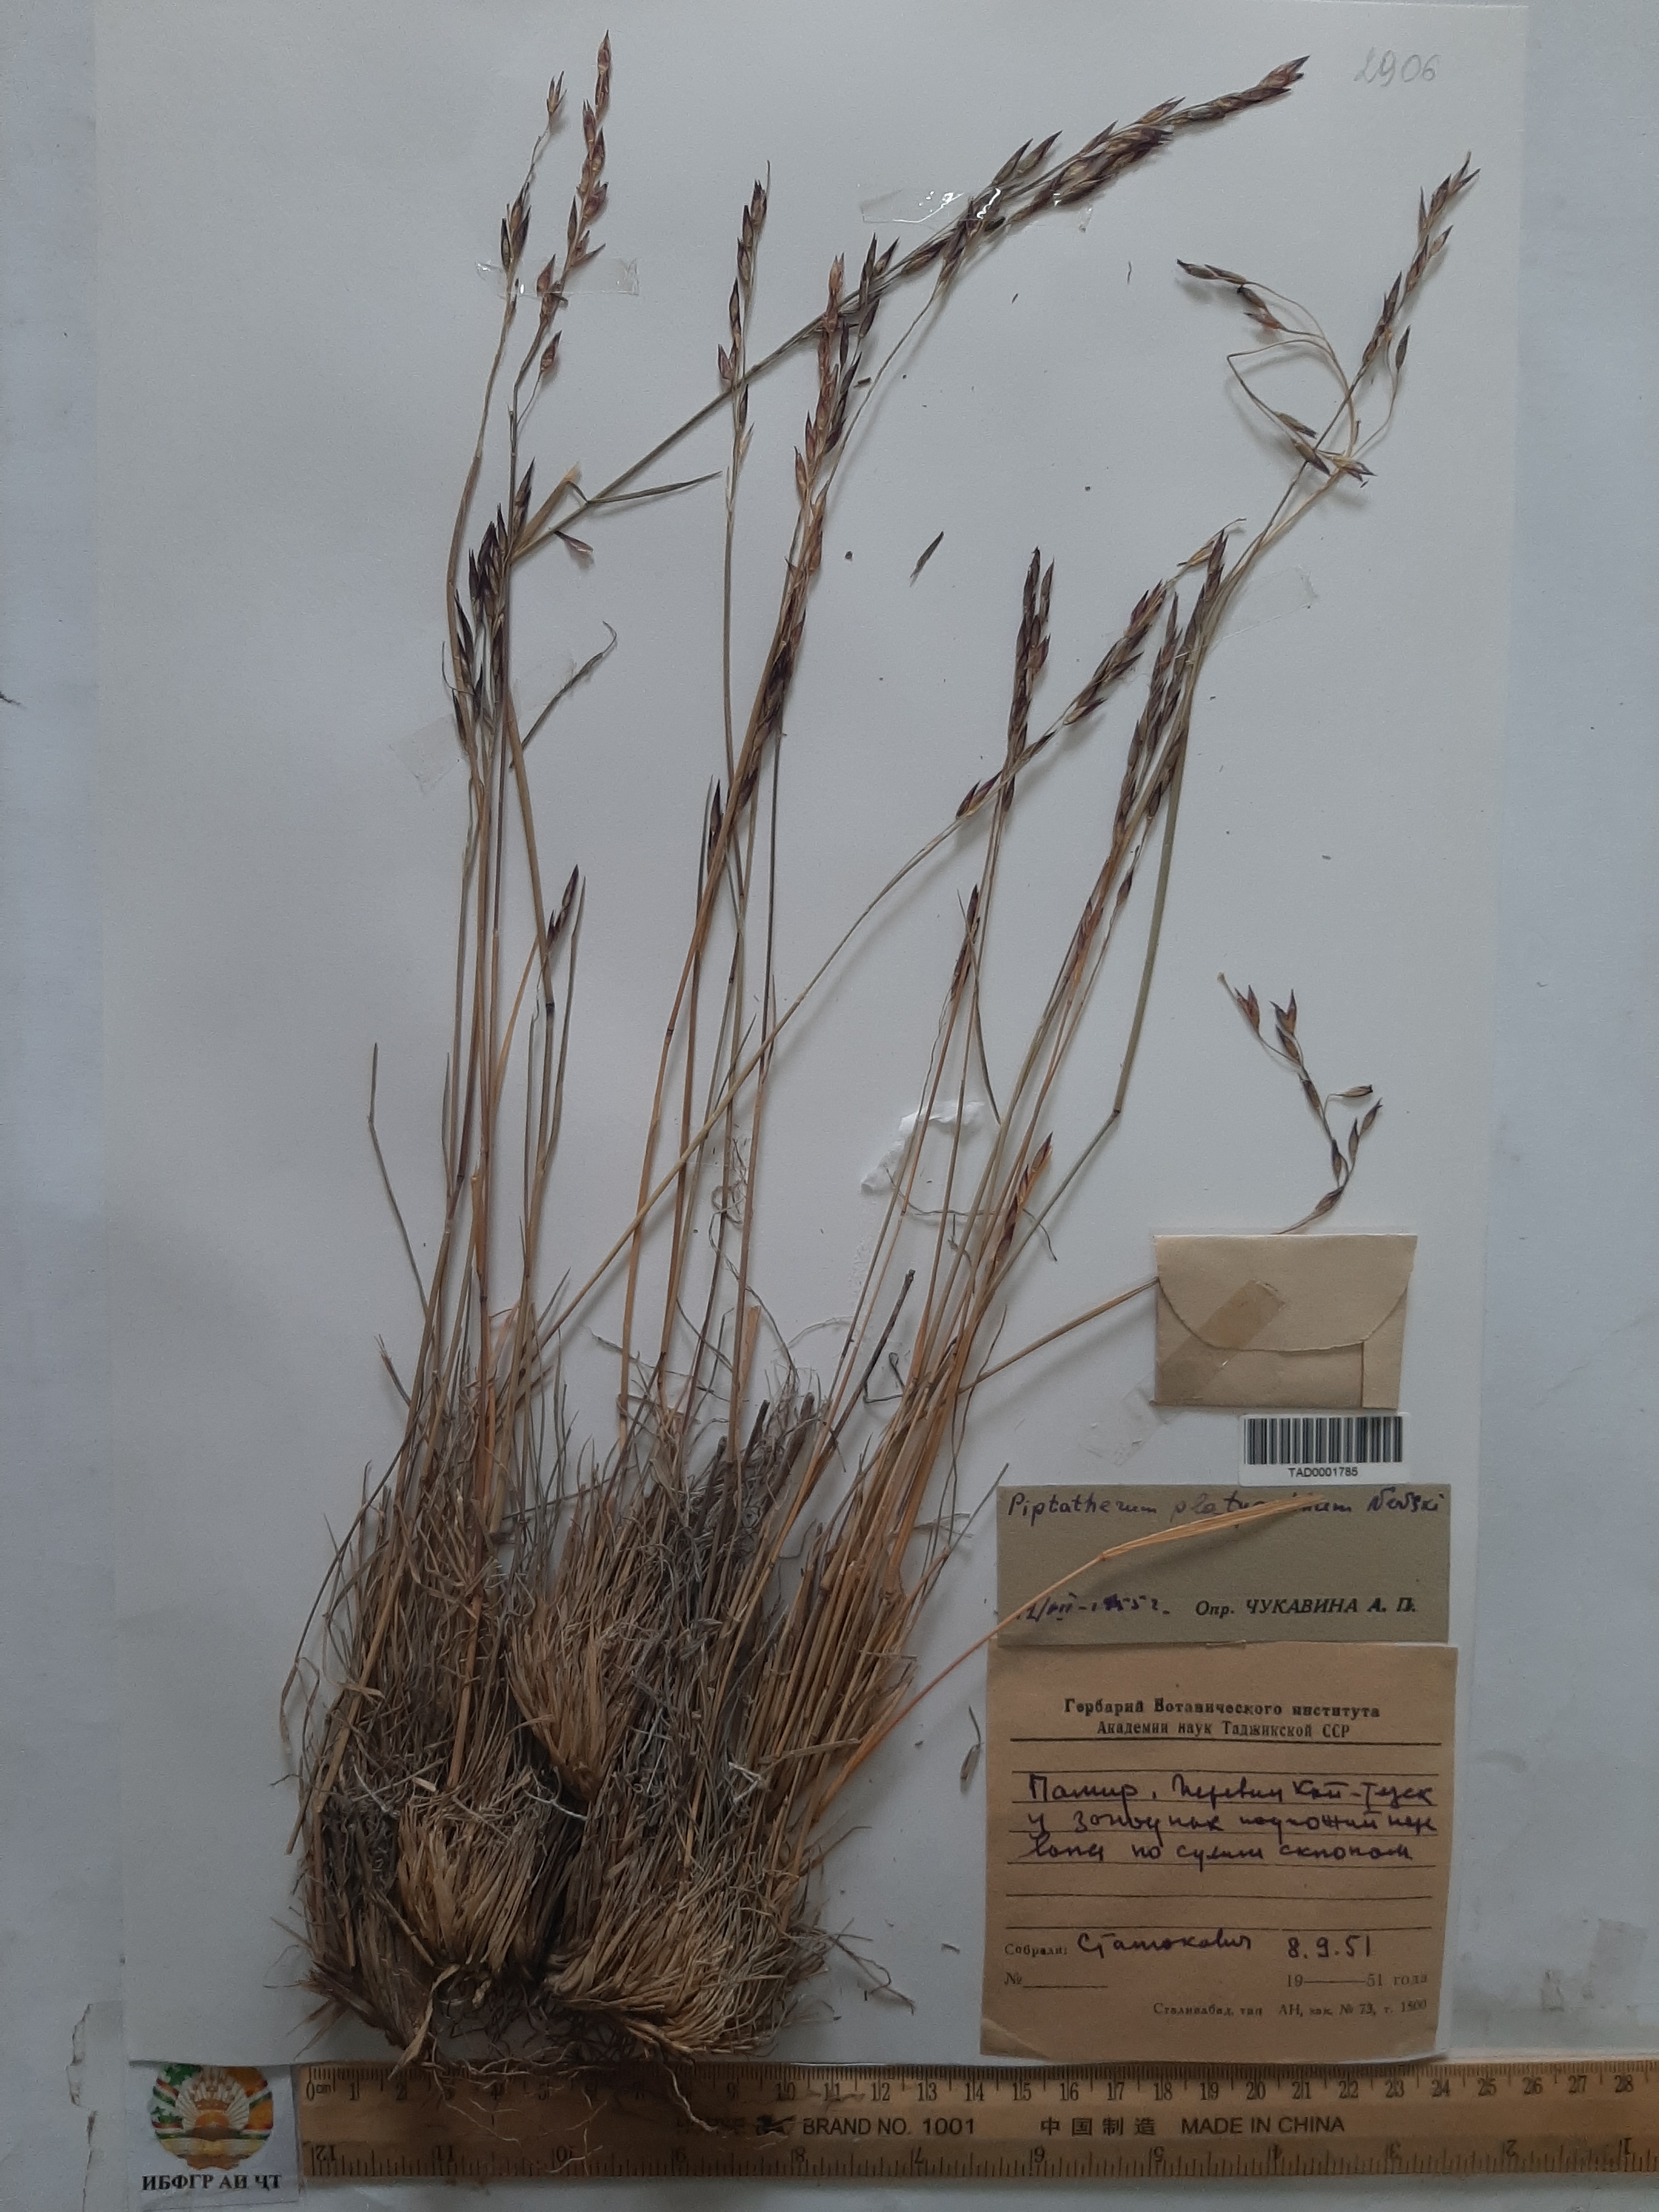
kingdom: Plantae
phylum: Tracheophyta
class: Liliopsida
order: Poales
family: Poaceae
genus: Piptatherum
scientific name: Piptatherum platyanthum
